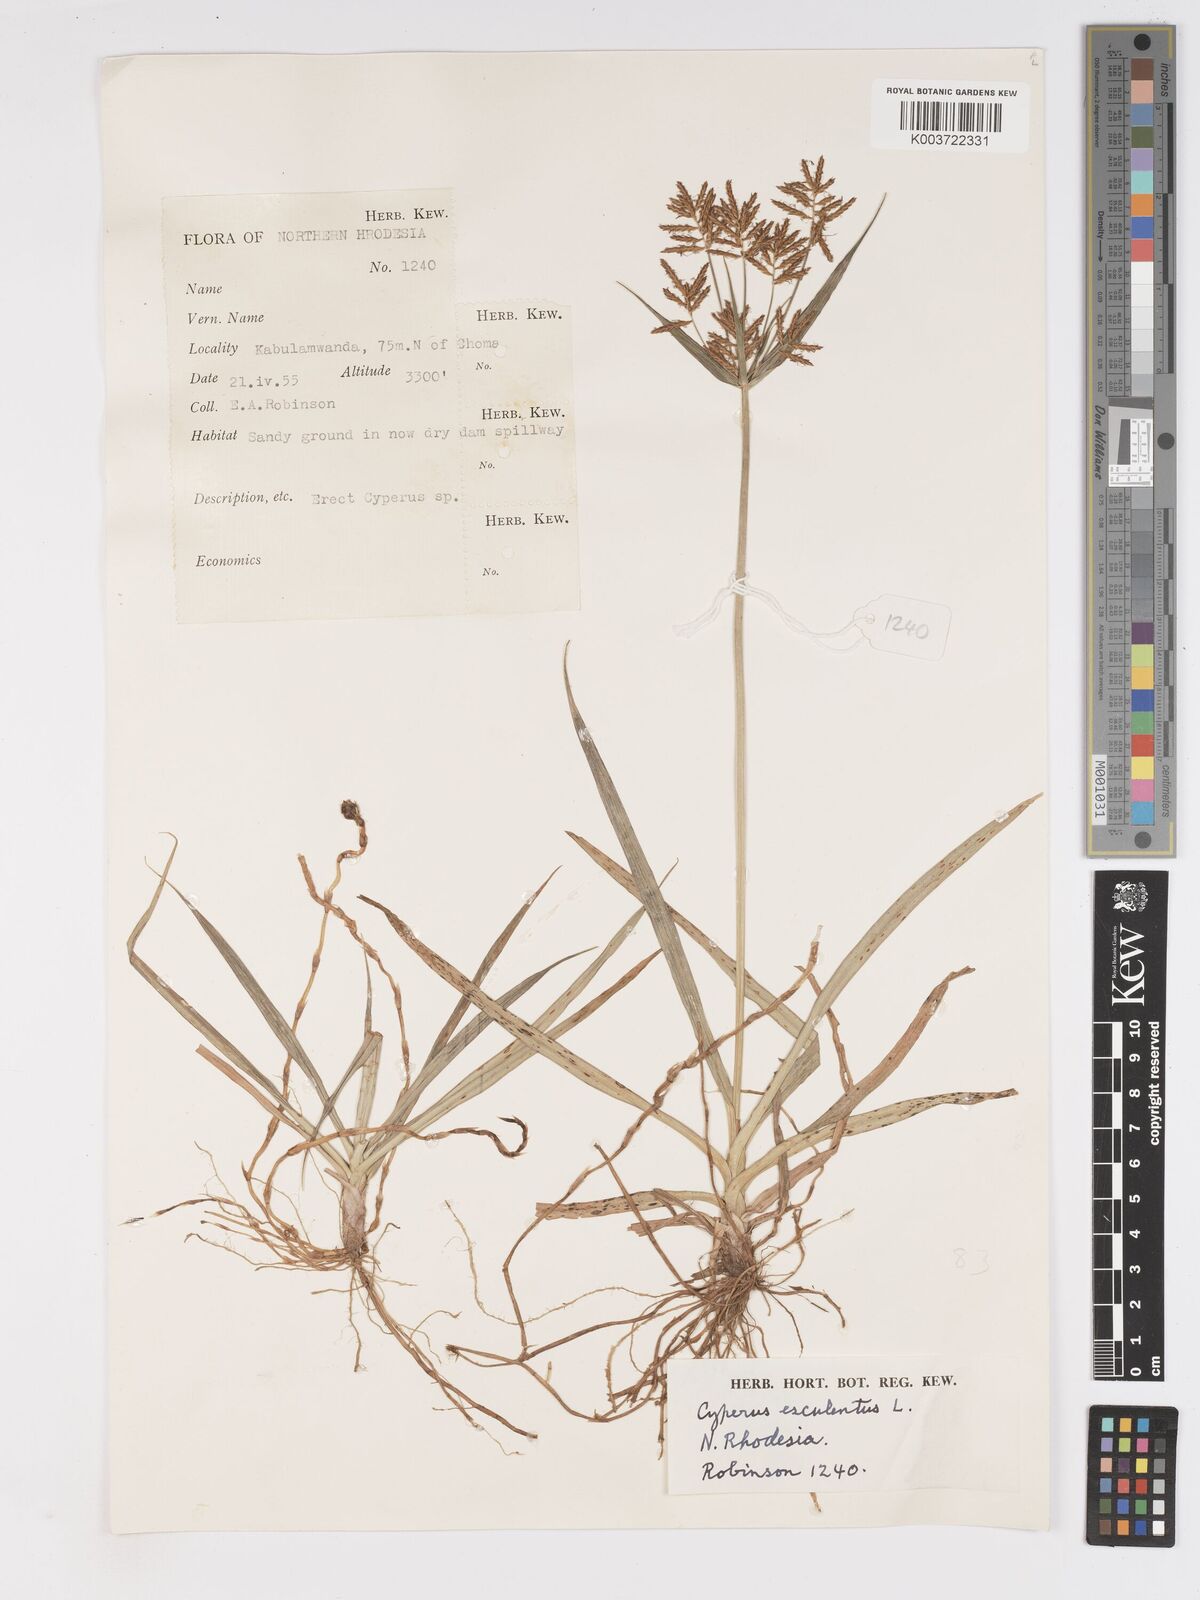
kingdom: Plantae
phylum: Tracheophyta
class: Liliopsida
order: Poales
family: Cyperaceae
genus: Cyperus
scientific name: Cyperus esculentus
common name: Yellow nutsedge
